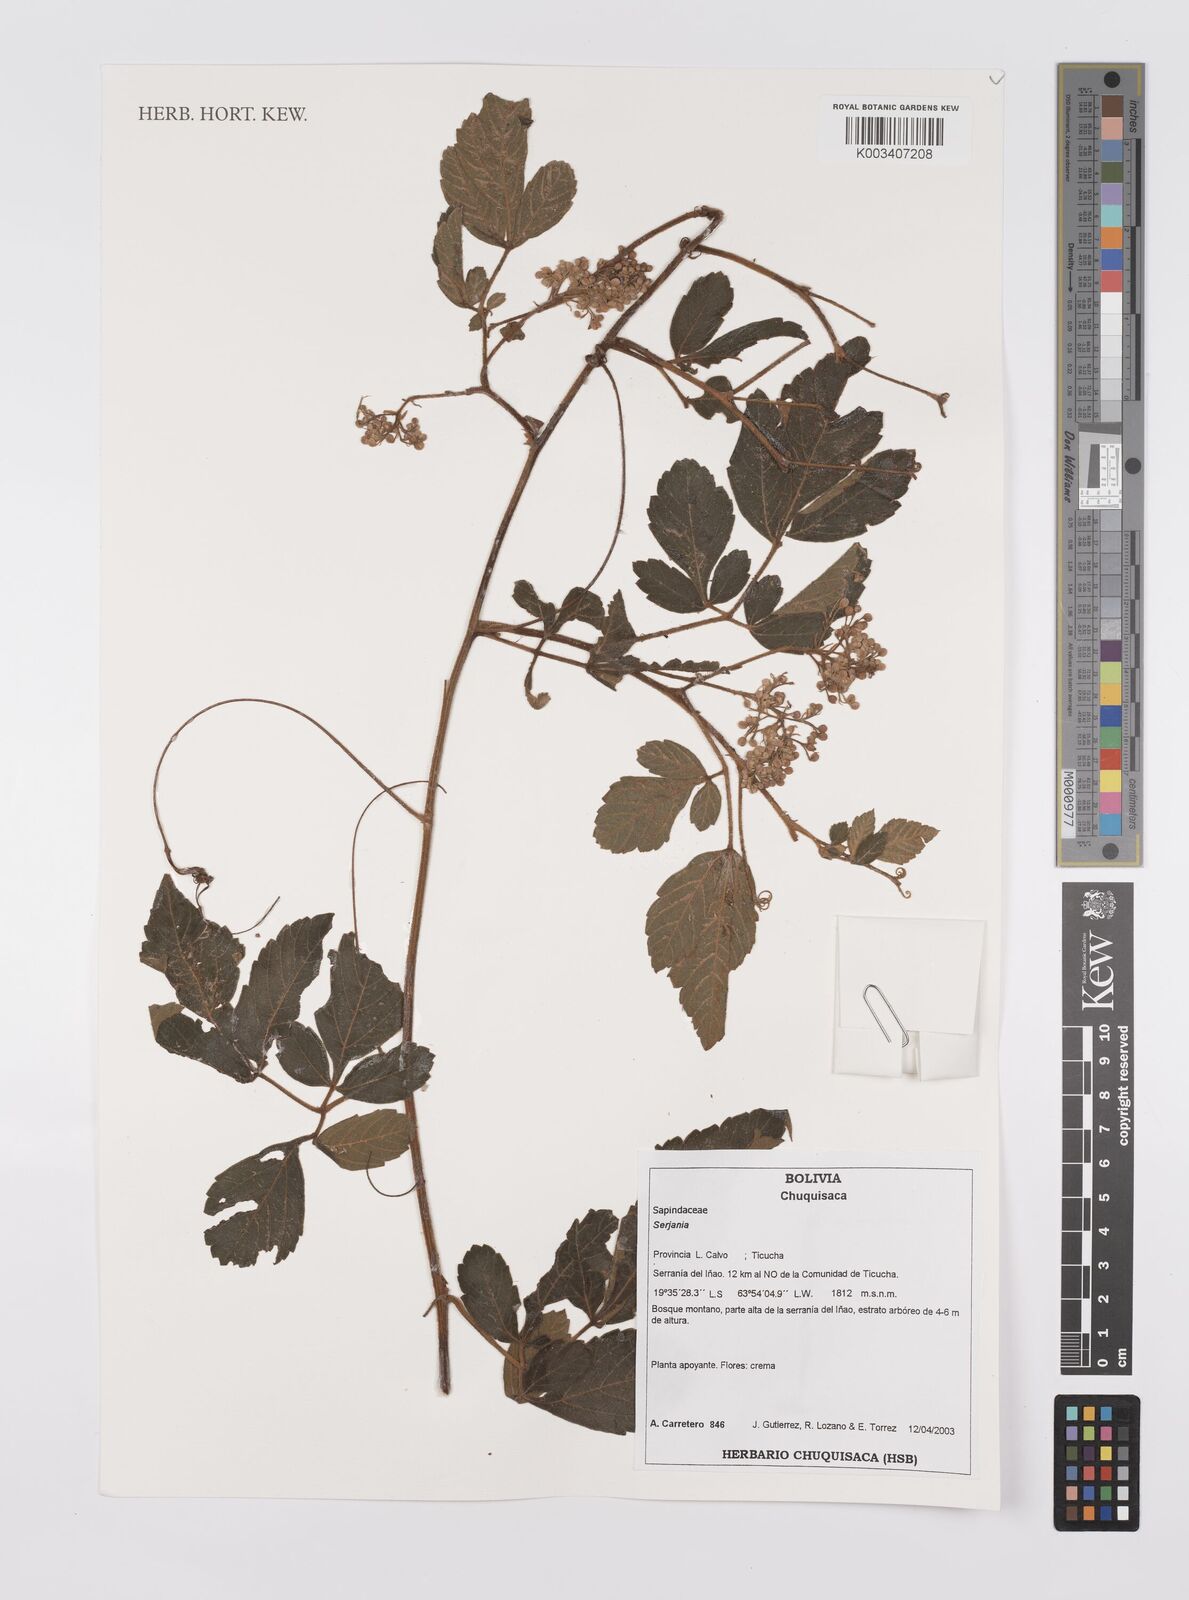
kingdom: Plantae
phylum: Tracheophyta
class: Magnoliopsida
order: Sapindales
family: Sapindaceae
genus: Serjania
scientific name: Serjania
